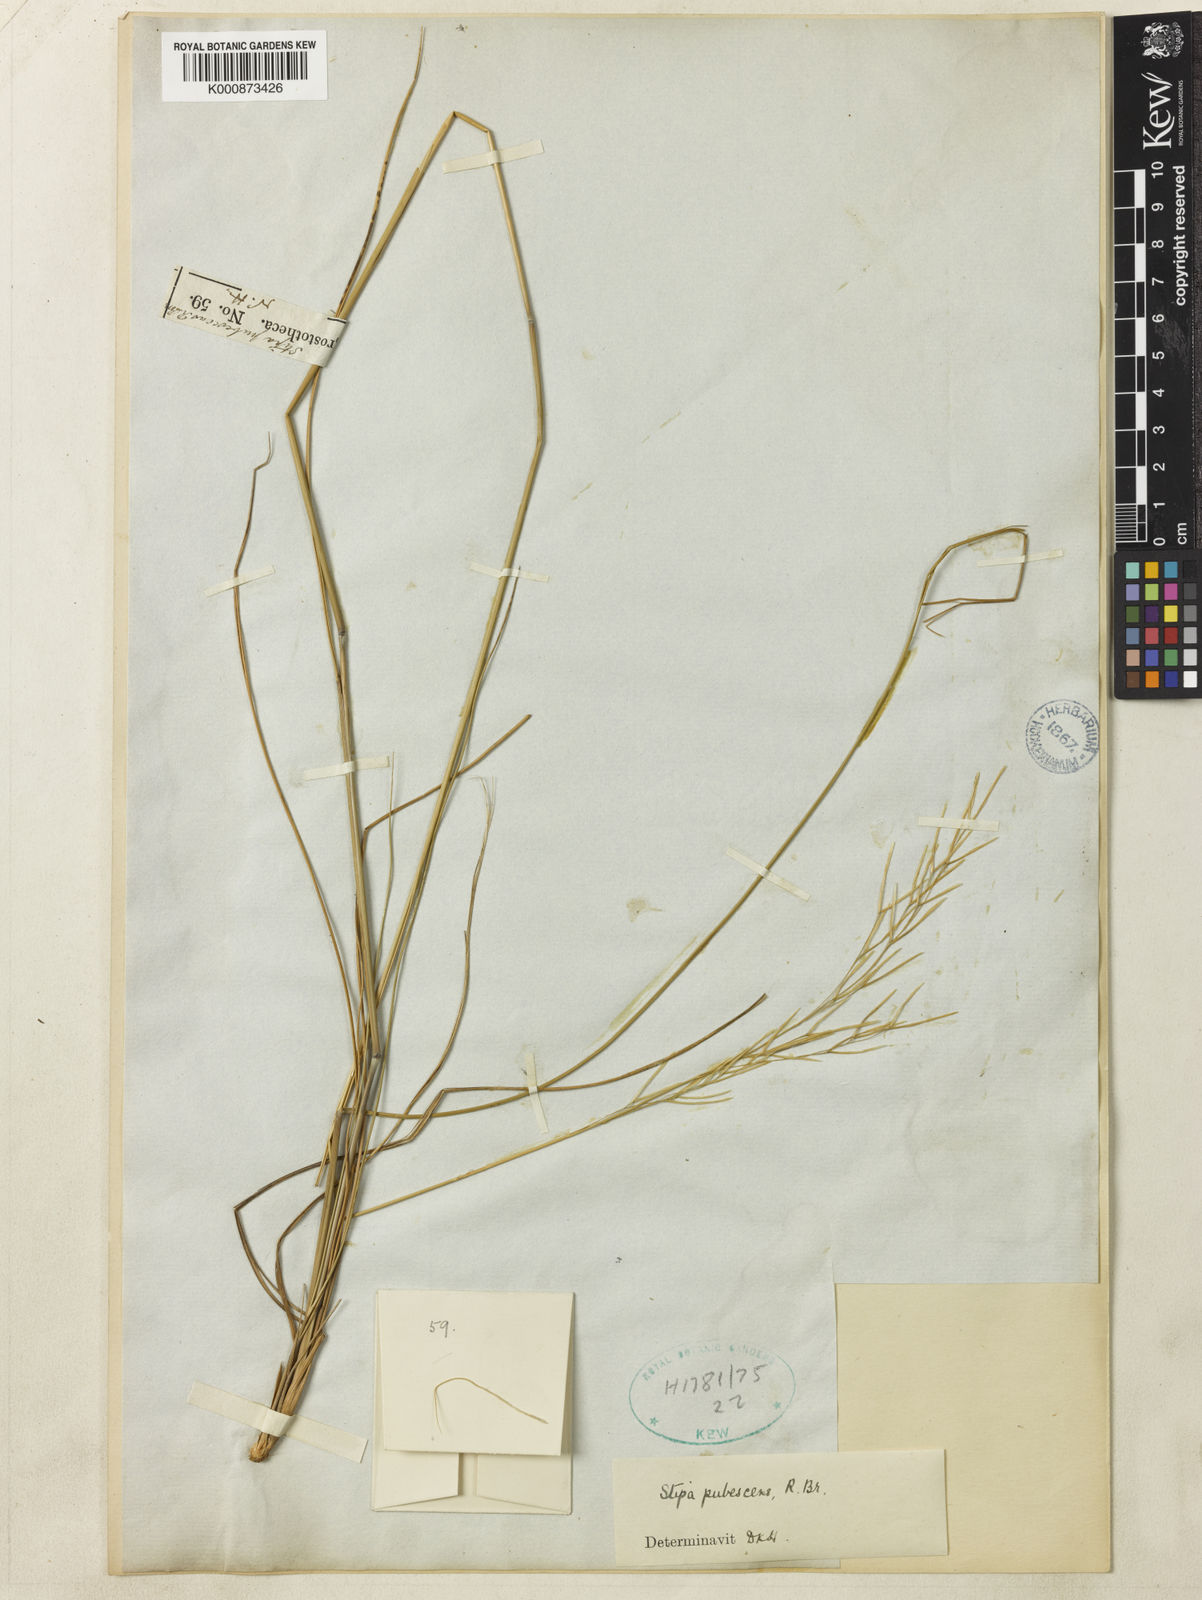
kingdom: Plantae
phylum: Tracheophyta
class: Liliopsida
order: Poales
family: Poaceae
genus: Austrostipa
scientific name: Austrostipa pubescens
